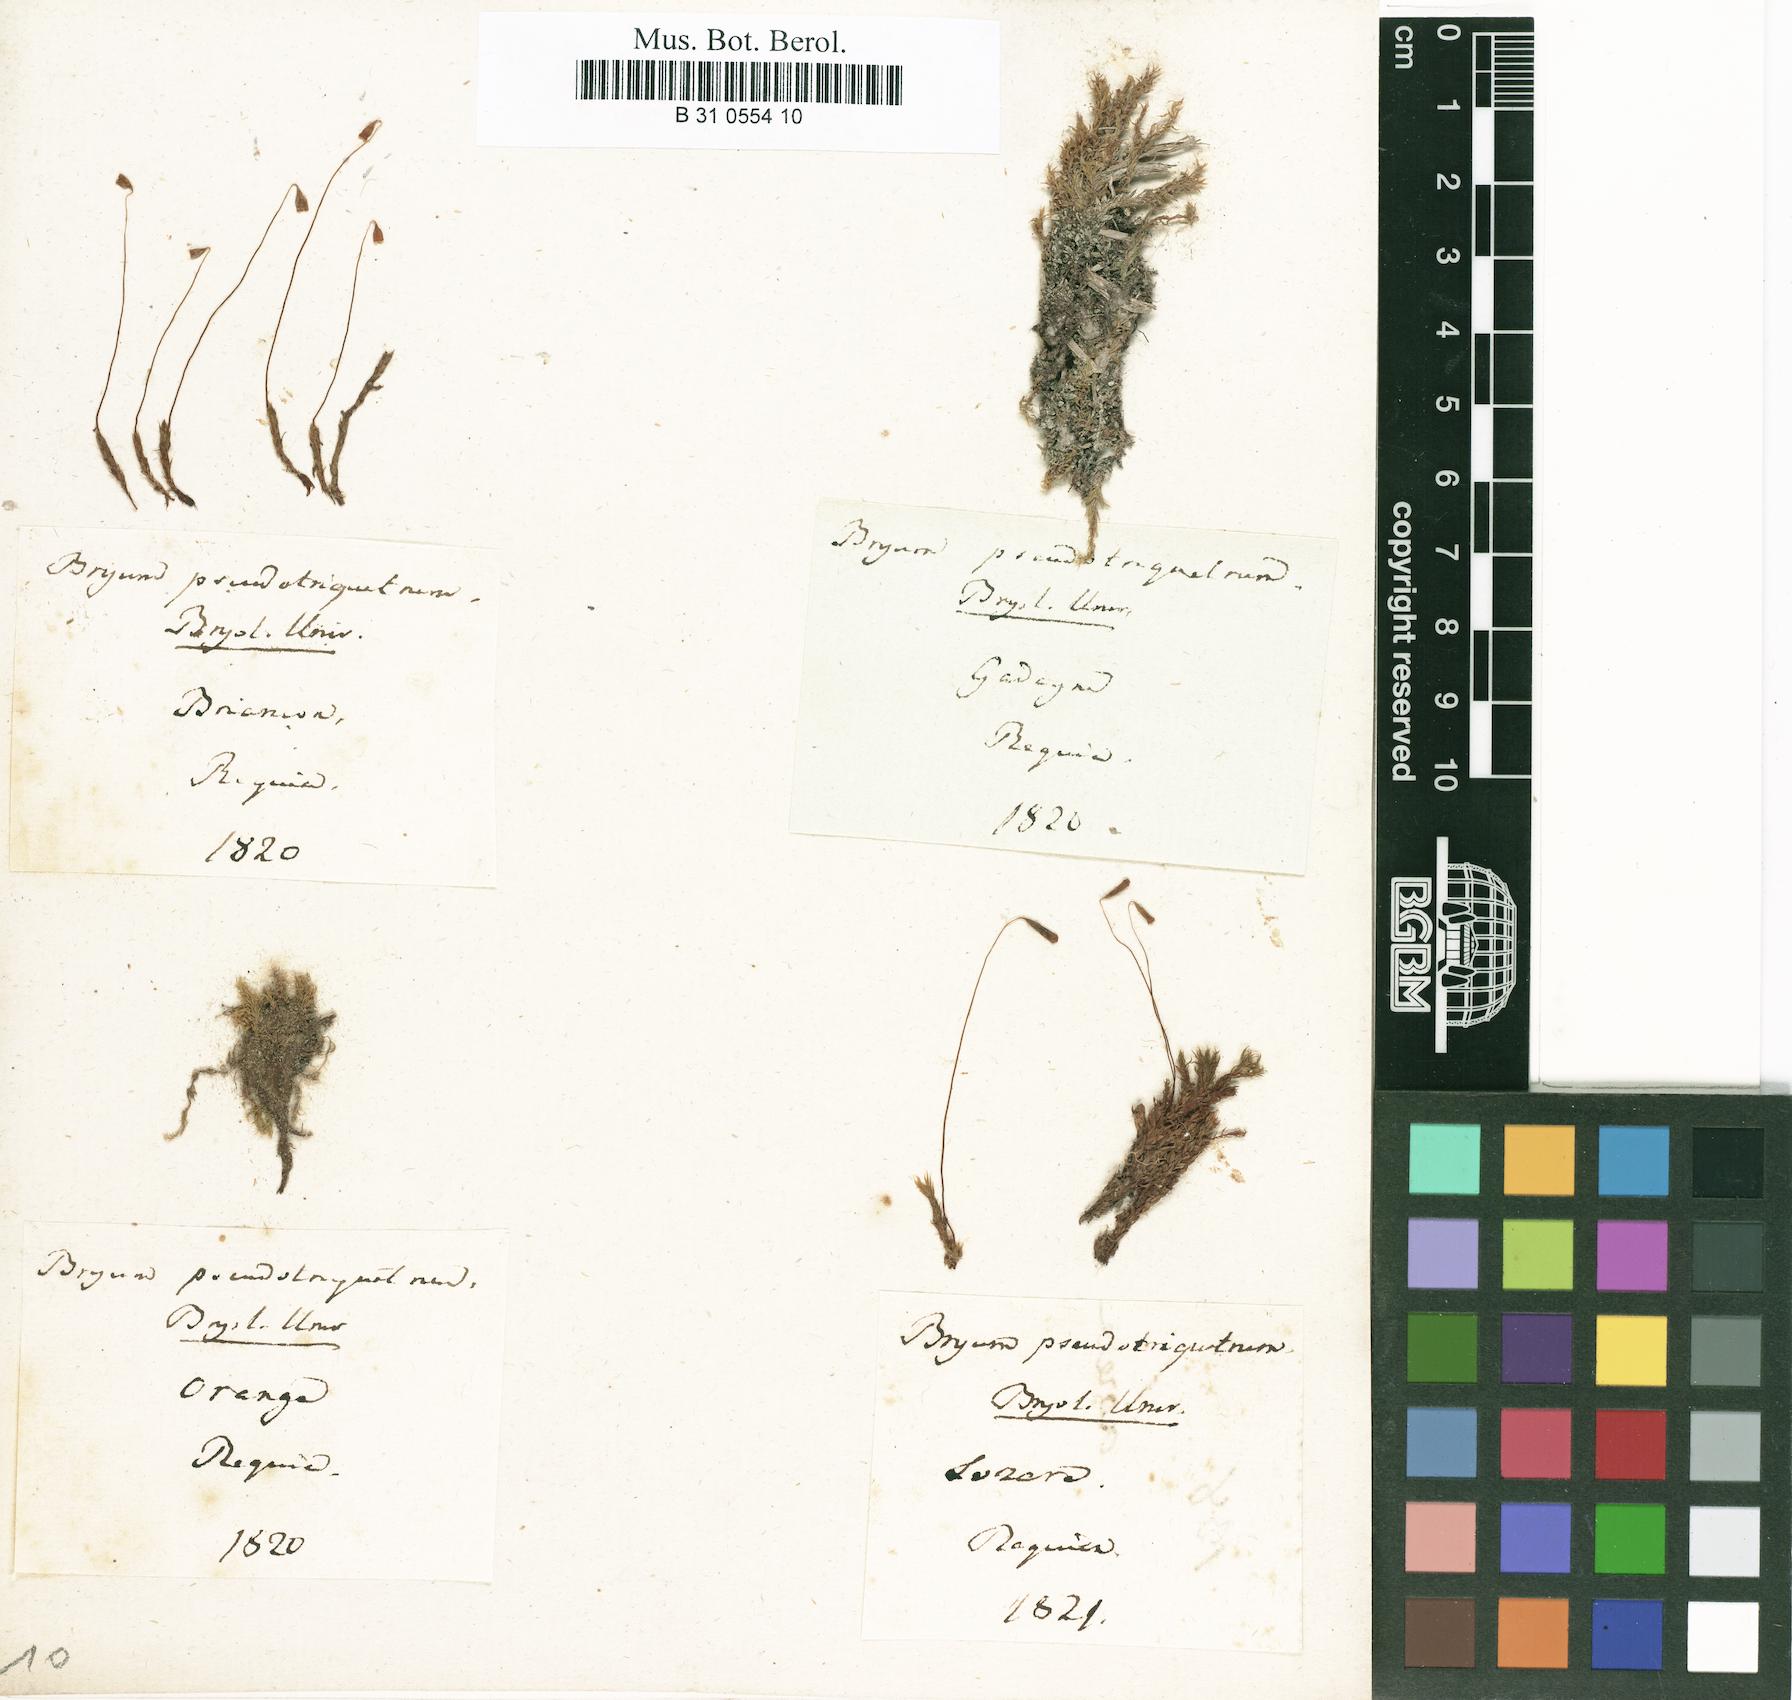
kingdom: Plantae
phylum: Bryophyta
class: Bryopsida
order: Bryales
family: Bryaceae
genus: Ptychostomum
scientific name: Ptychostomum pseudotriquetrum
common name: Long-leaved thread moss
